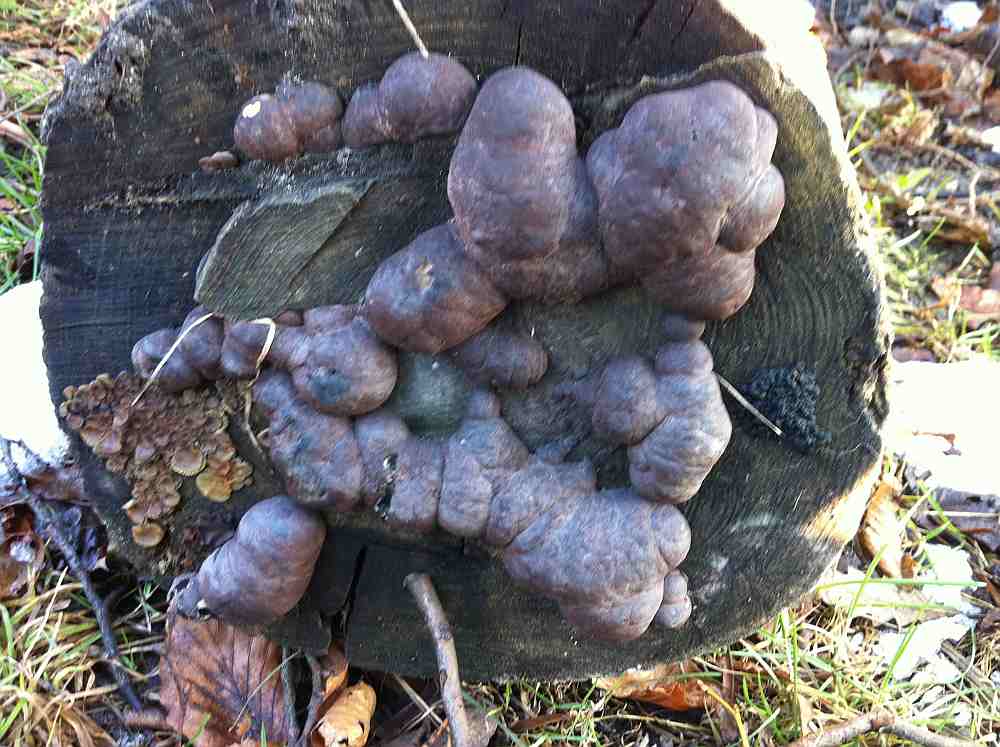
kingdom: Fungi
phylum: Ascomycota
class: Sordariomycetes
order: Xylariales
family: Hypoxylaceae
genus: Daldinia
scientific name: Daldinia concentrica
